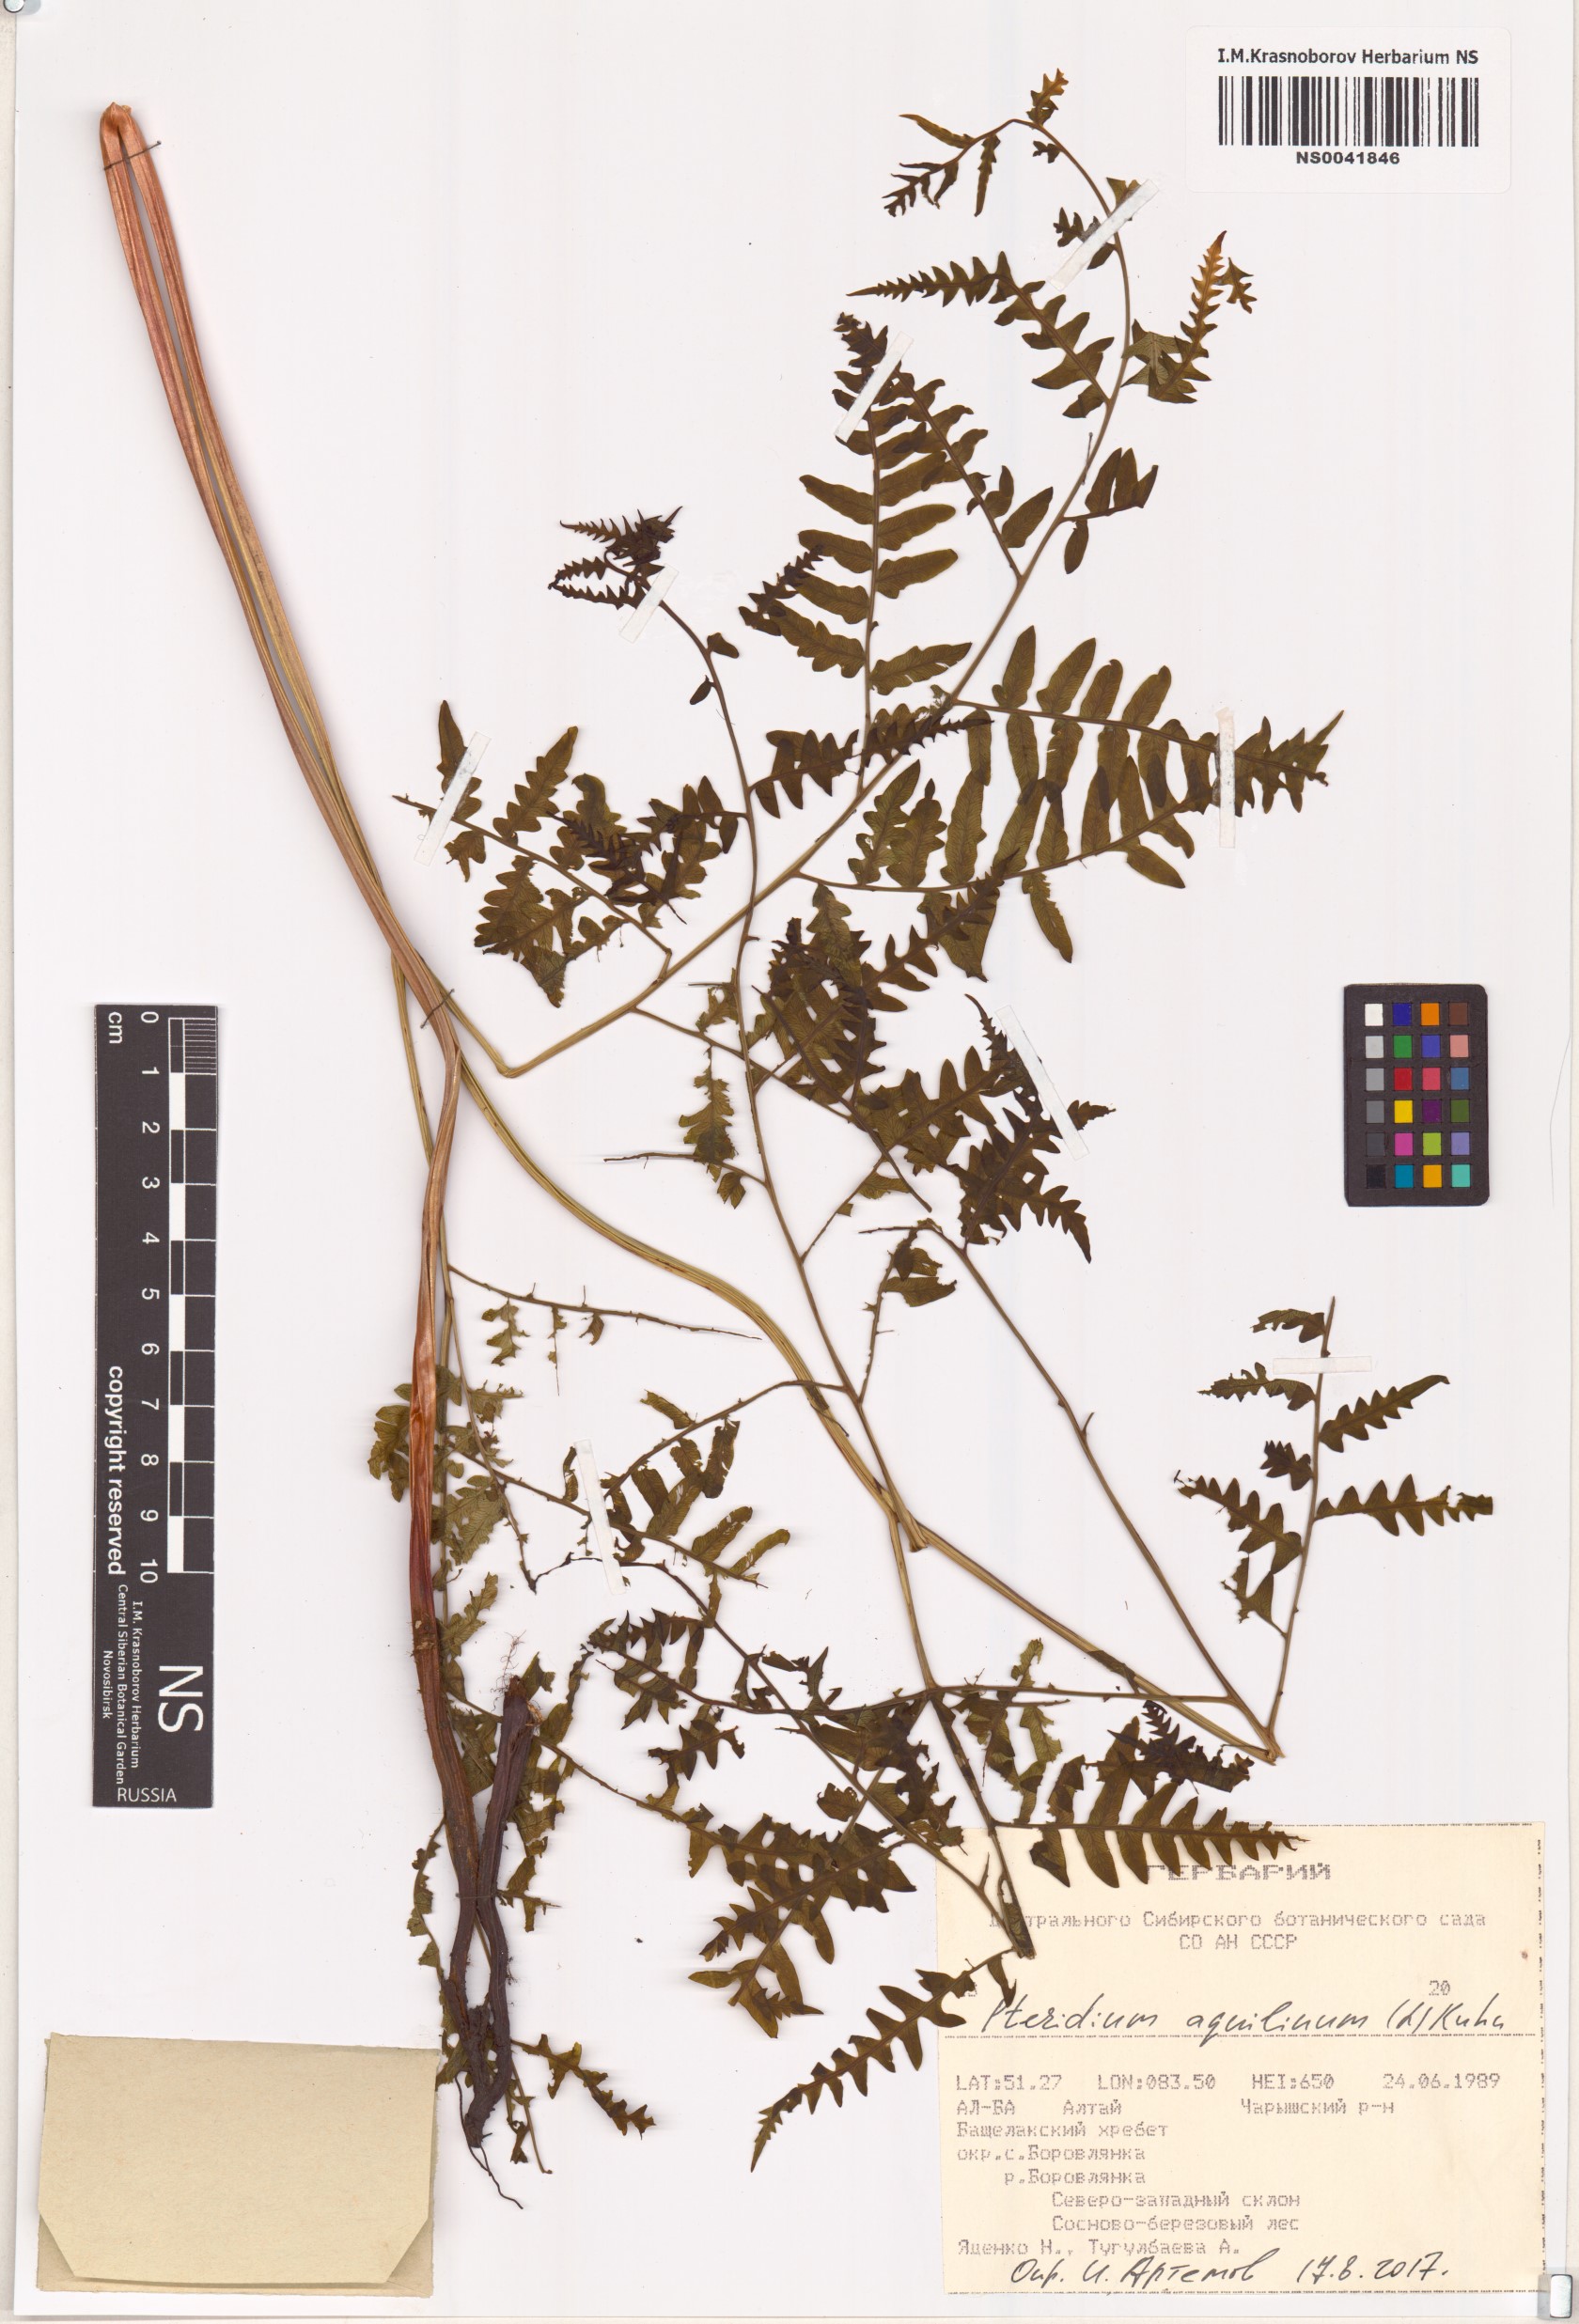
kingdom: Plantae
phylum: Tracheophyta
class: Polypodiopsida
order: Polypodiales
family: Dennstaedtiaceae
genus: Pteridium
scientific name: Pteridium aquilinum
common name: Bracken
